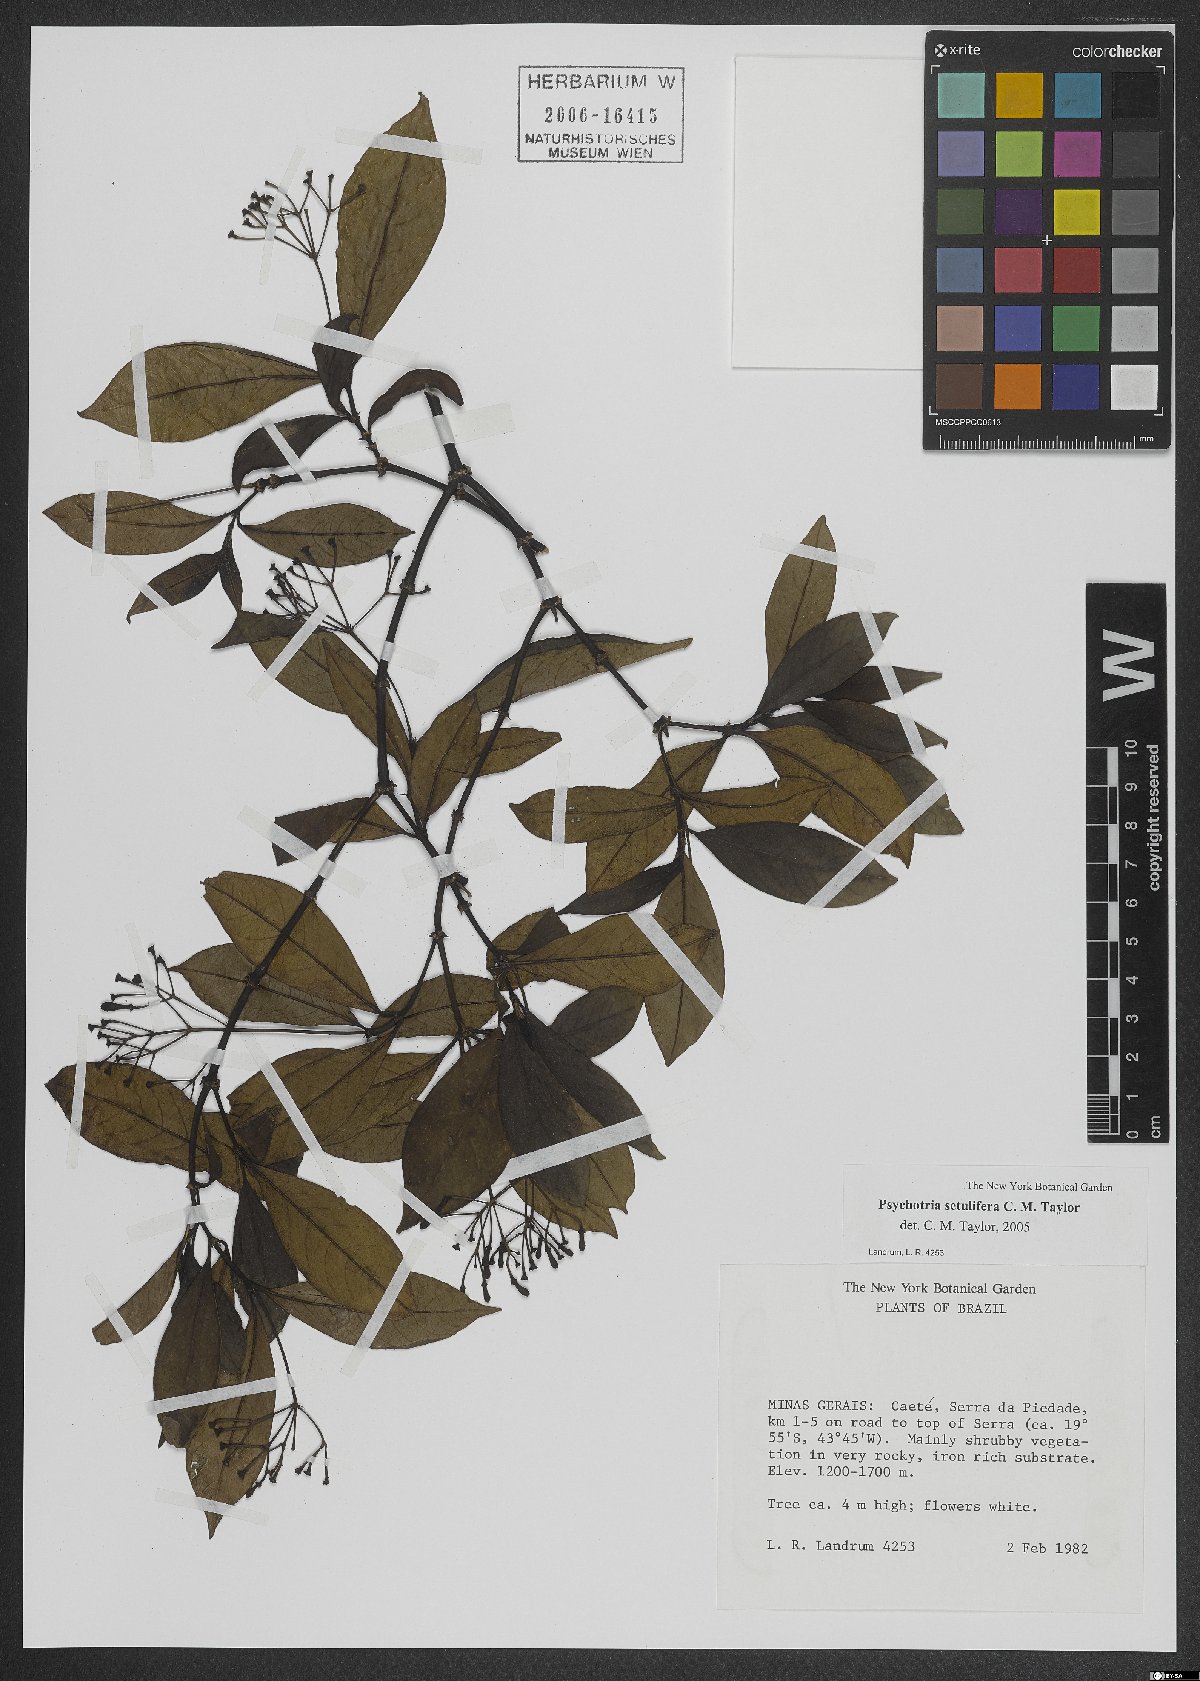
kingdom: Plantae
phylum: Tracheophyta
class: Magnoliopsida
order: Gentianales
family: Rubiaceae
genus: Psychotria
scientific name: Psychotria setulifera
